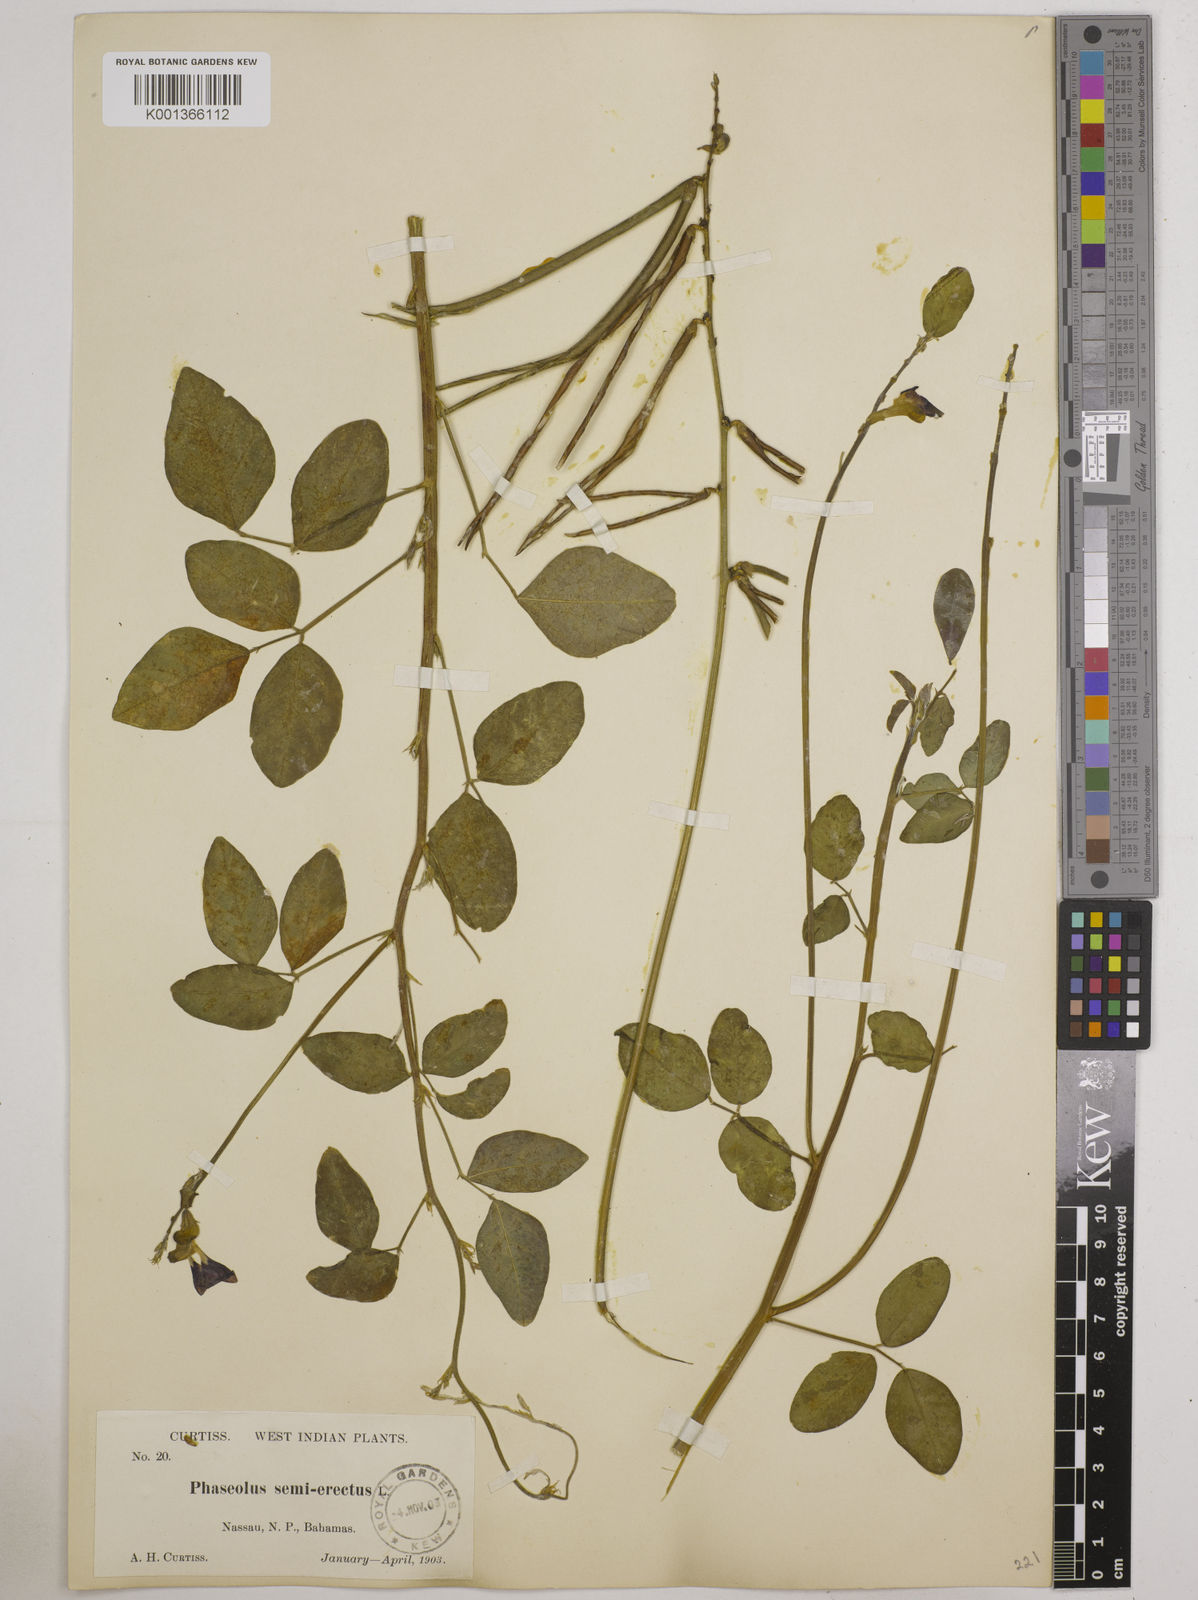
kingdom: Plantae
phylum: Tracheophyta
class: Magnoliopsida
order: Fabales
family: Fabaceae
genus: Macroptilium
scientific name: Macroptilium lathyroides
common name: Wild bushbean
